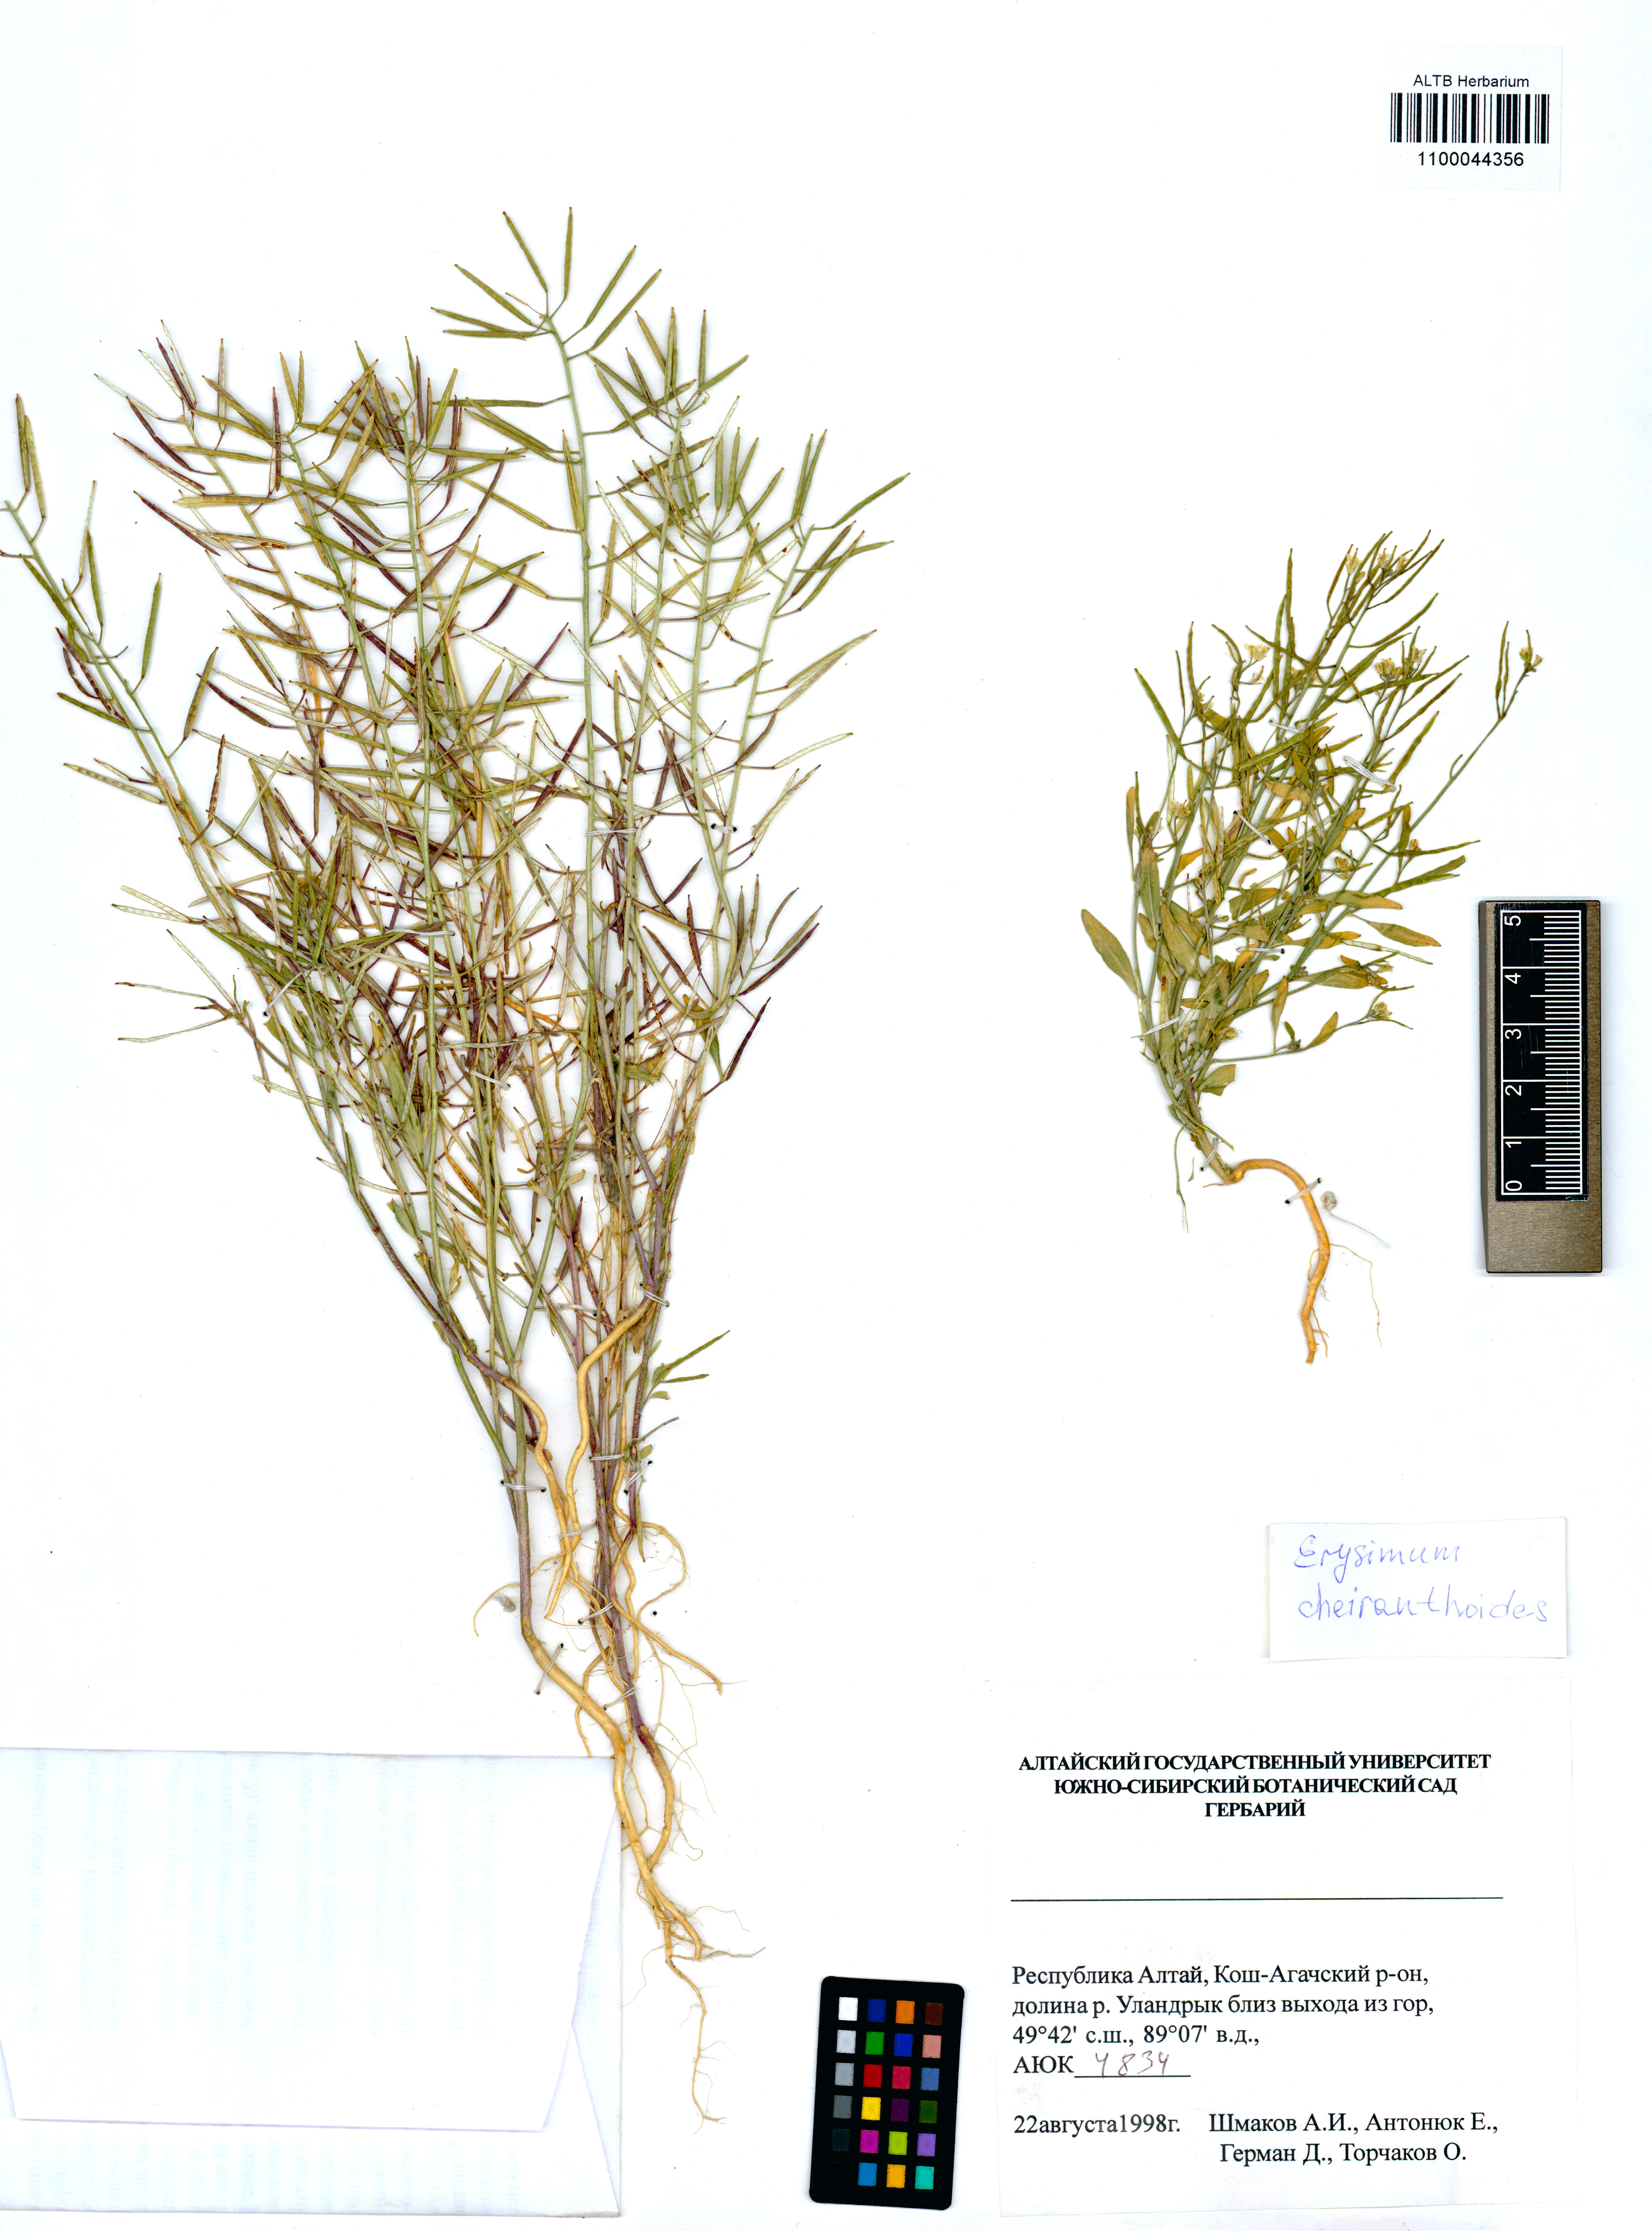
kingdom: Plantae
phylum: Tracheophyta
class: Magnoliopsida
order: Brassicales
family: Brassicaceae
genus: Erysimum
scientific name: Erysimum cheiranthoides
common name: Treacle mustard
